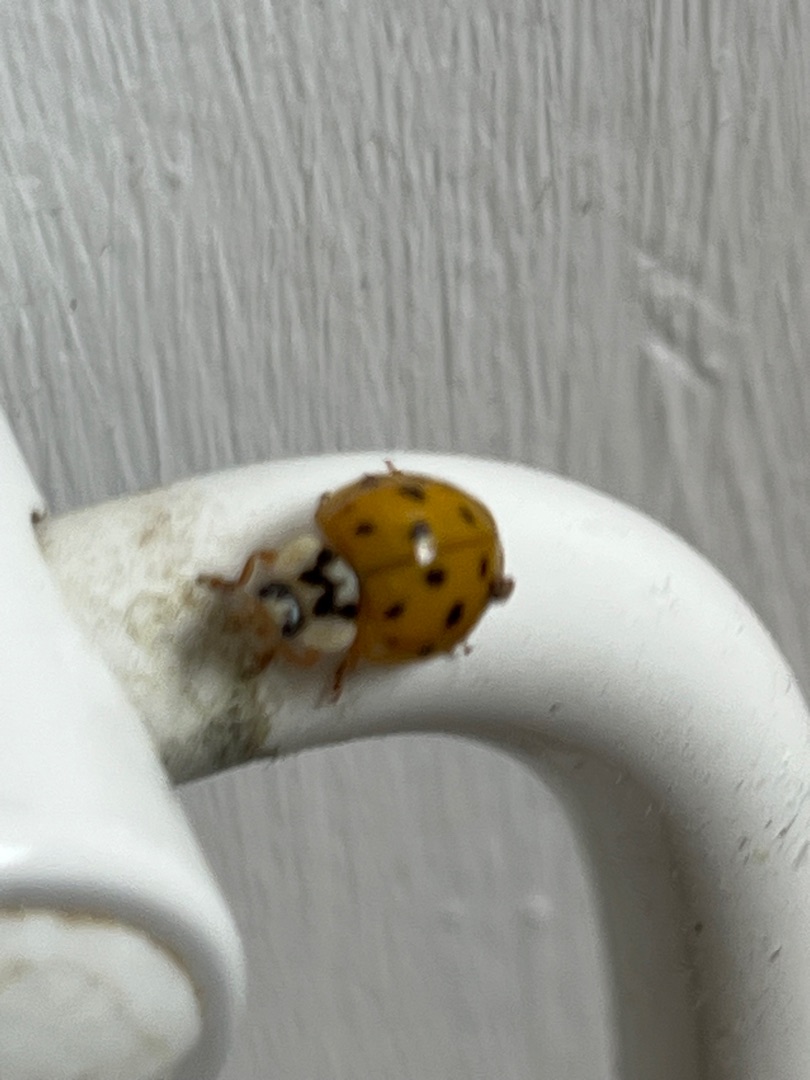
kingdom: Animalia
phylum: Arthropoda
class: Insecta
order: Coleoptera
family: Coccinellidae
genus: Harmonia
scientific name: Harmonia axyridis
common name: Harlekinmariehøne
